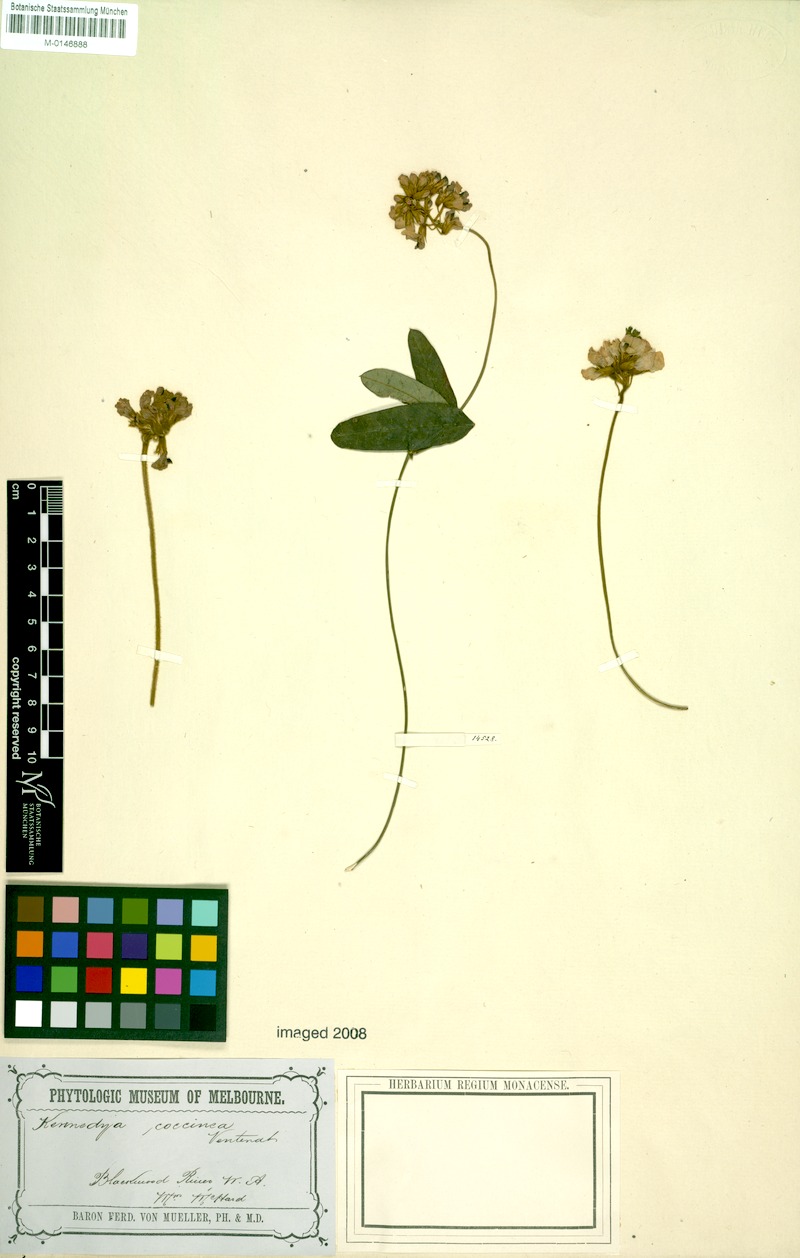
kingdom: Plantae
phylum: Tracheophyta
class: Magnoliopsida
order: Fabales
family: Fabaceae
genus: Kennedia
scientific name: Kennedia coccinea
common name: Coralvine
